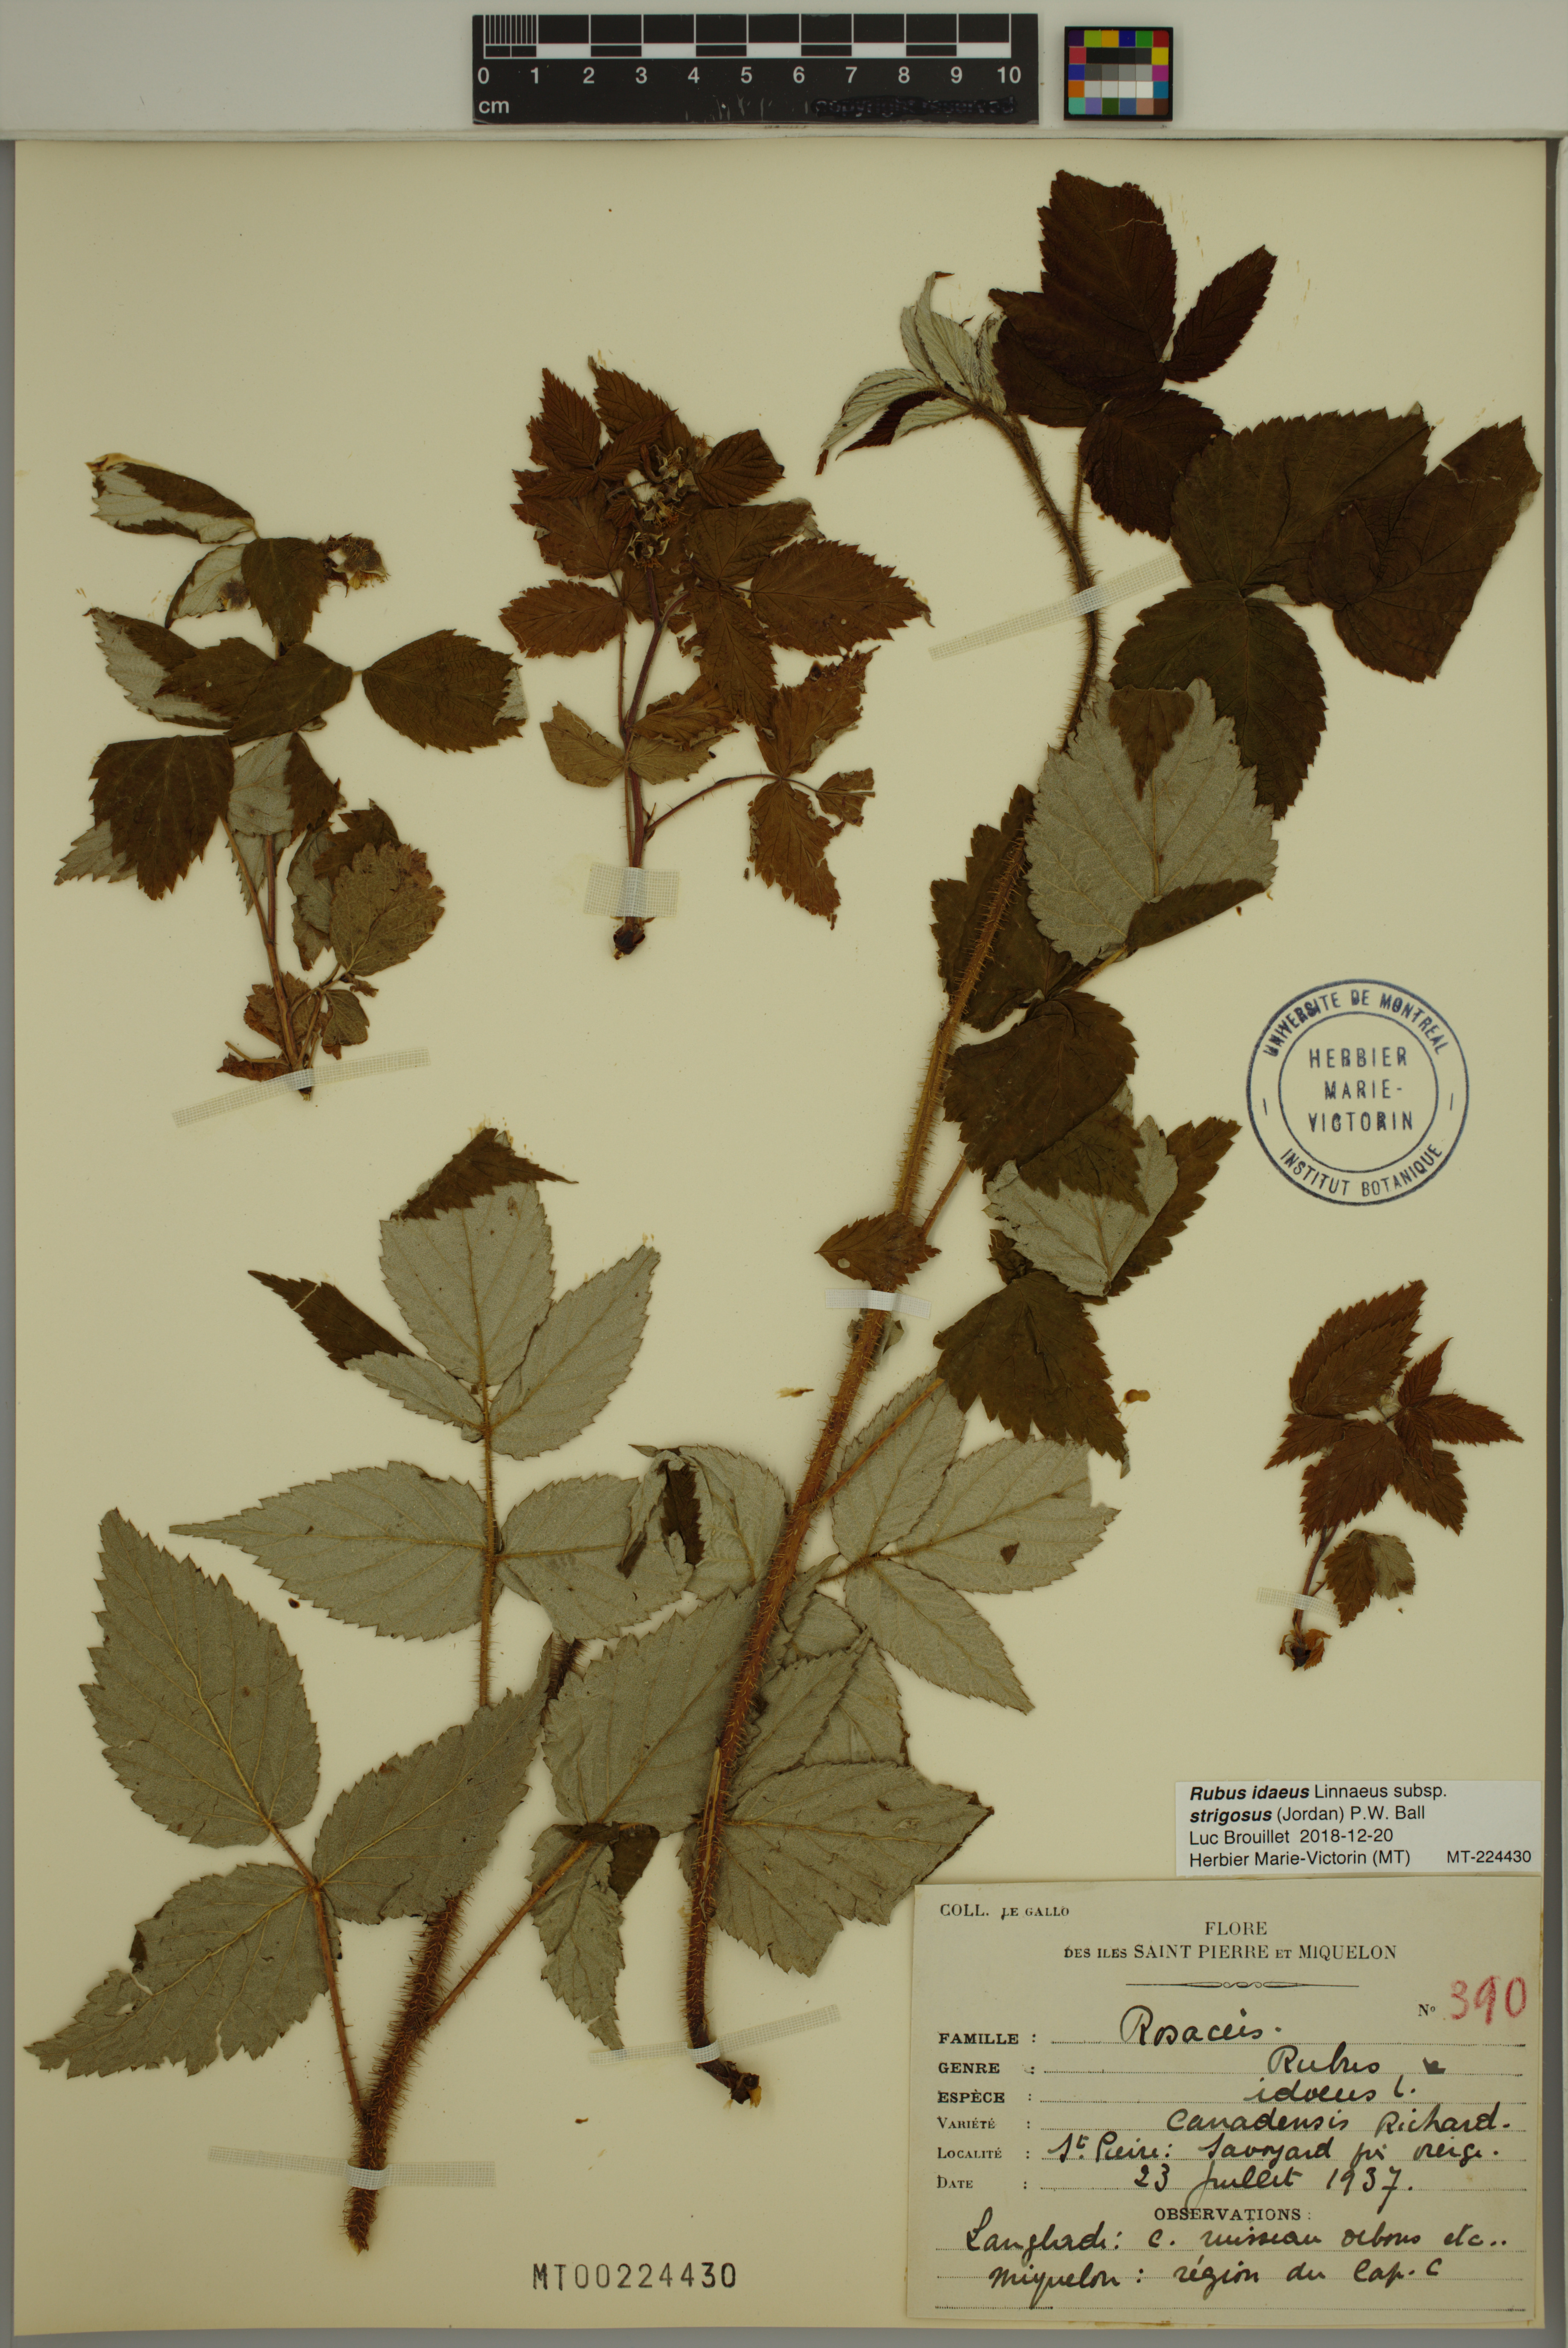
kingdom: Plantae
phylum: Tracheophyta
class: Magnoliopsida
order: Rosales
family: Rosaceae
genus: Rubus
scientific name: Rubus sachalinensis
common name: Red raspberry
